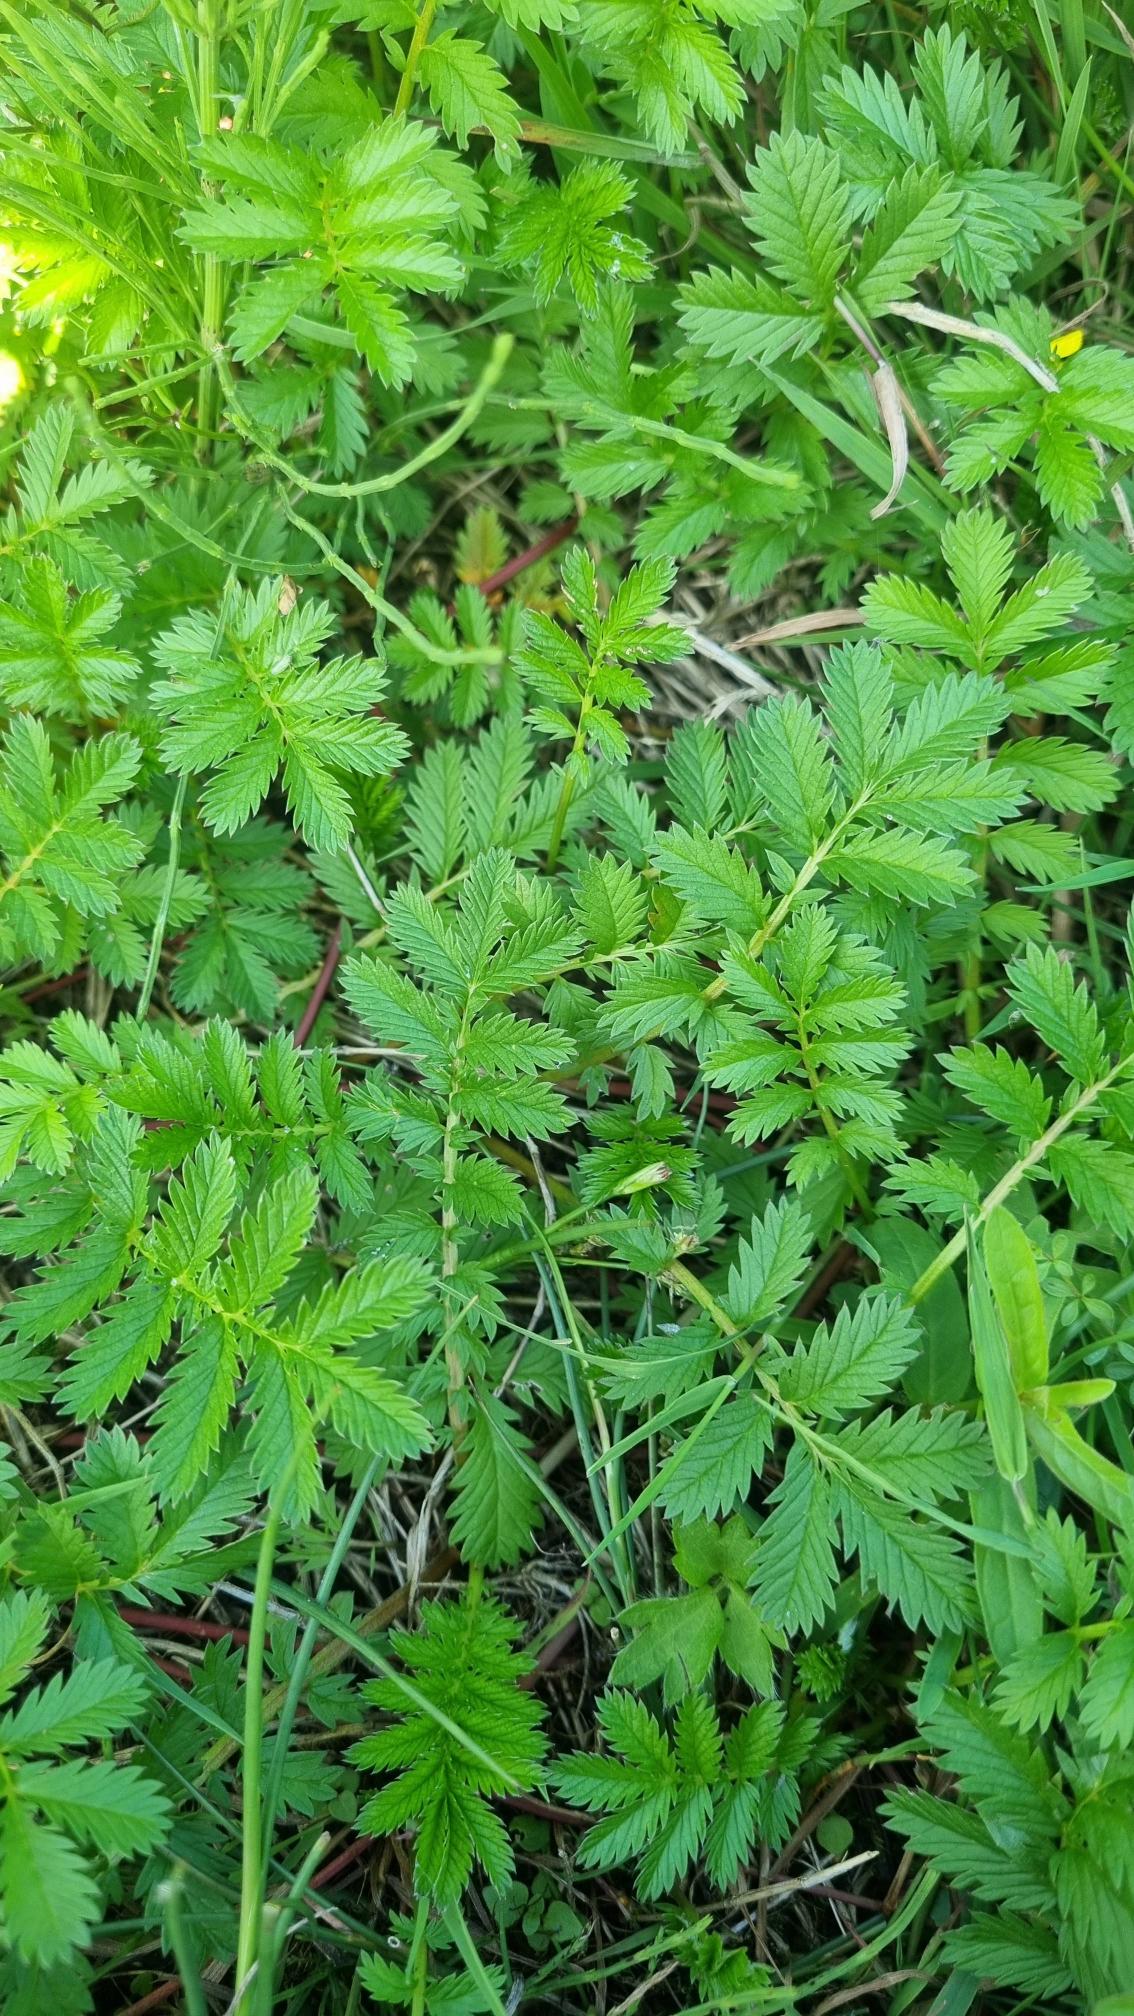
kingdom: Plantae
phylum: Tracheophyta
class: Magnoliopsida
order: Rosales
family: Rosaceae
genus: Argentina
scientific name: Argentina anserina
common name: Gåsepotentil
